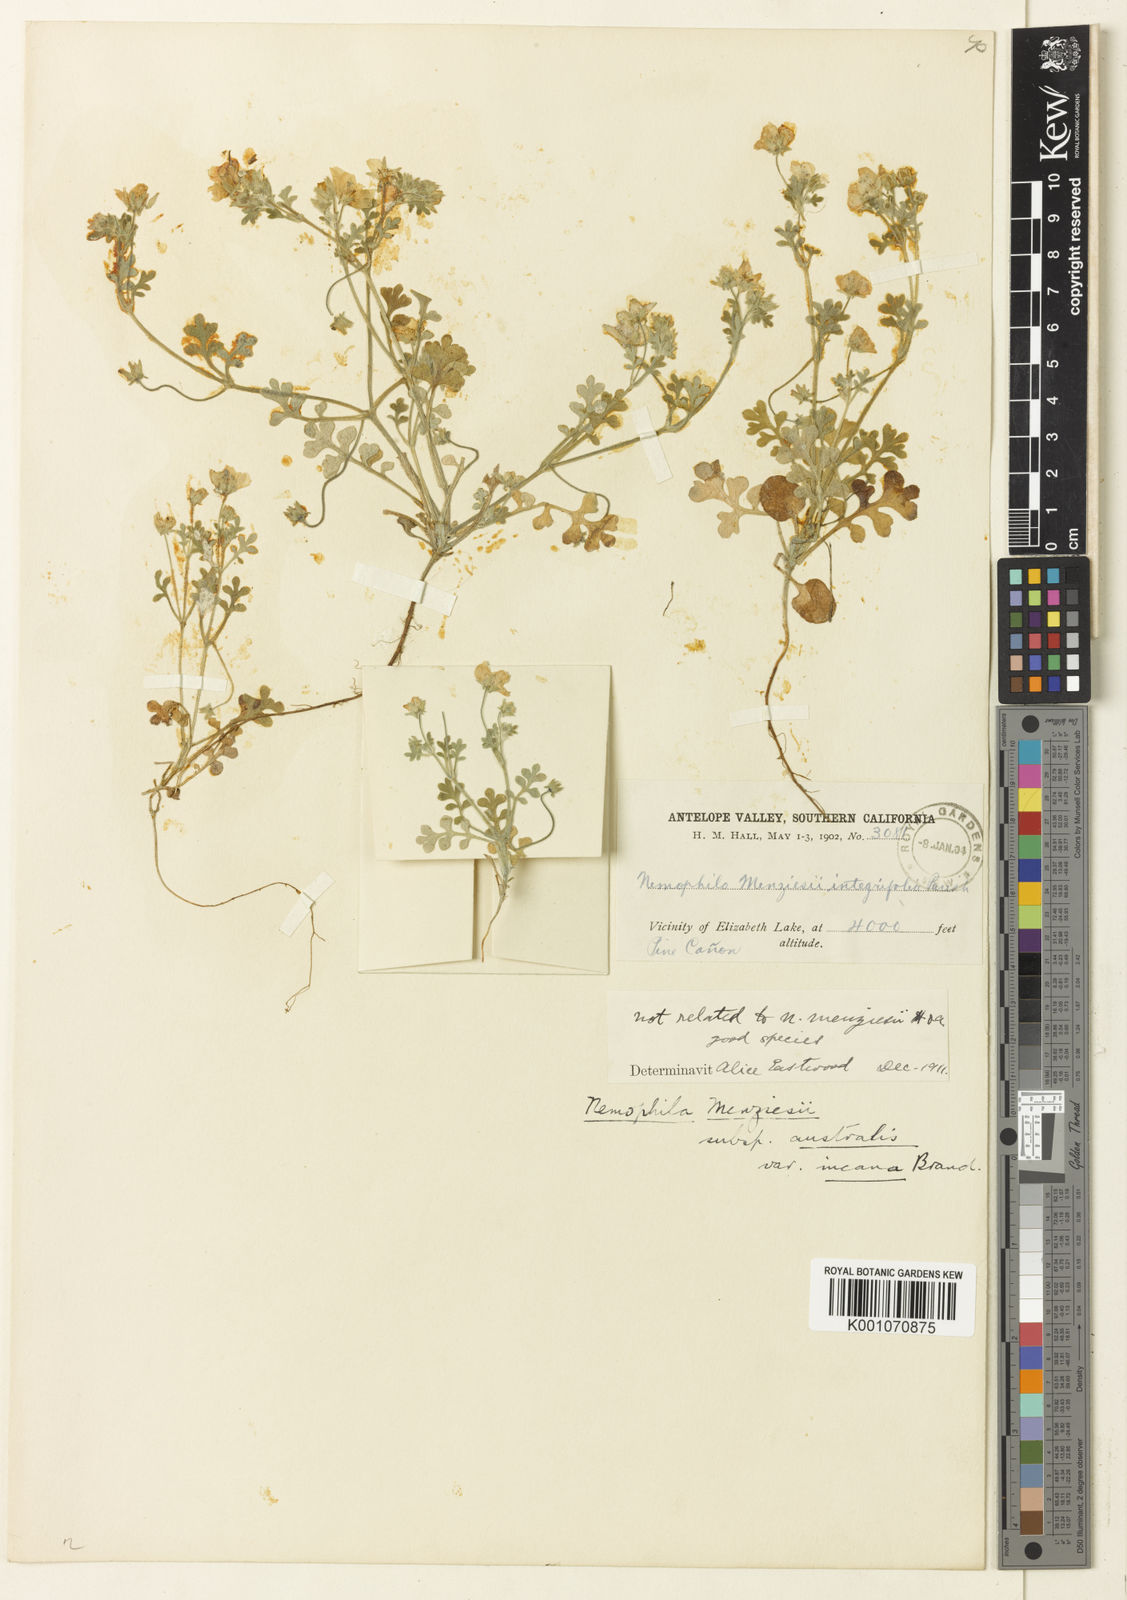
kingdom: Plantae
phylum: Tracheophyta
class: Magnoliopsida
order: Boraginales
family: Hydrophyllaceae
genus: Nemophila
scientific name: Nemophila
